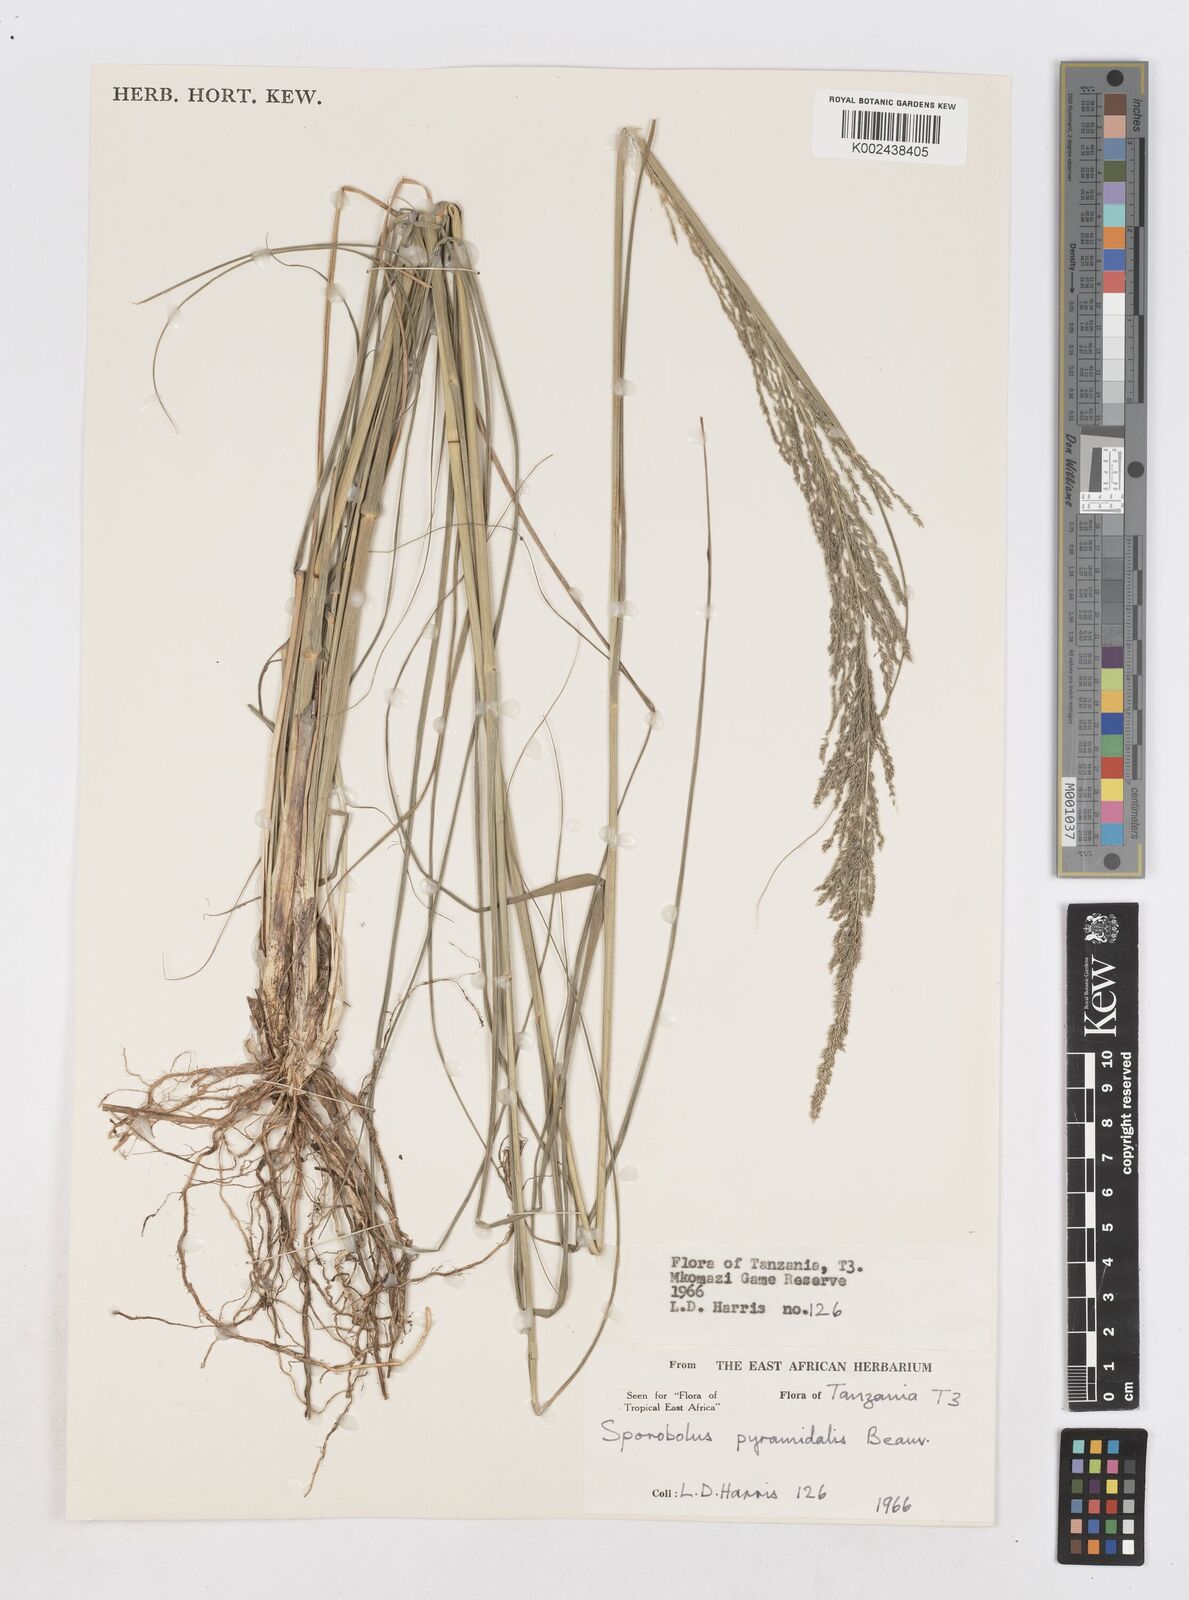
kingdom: Plantae
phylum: Tracheophyta
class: Liliopsida
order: Poales
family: Poaceae
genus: Sporobolus
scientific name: Sporobolus pyramidalis
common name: West indian dropseed
